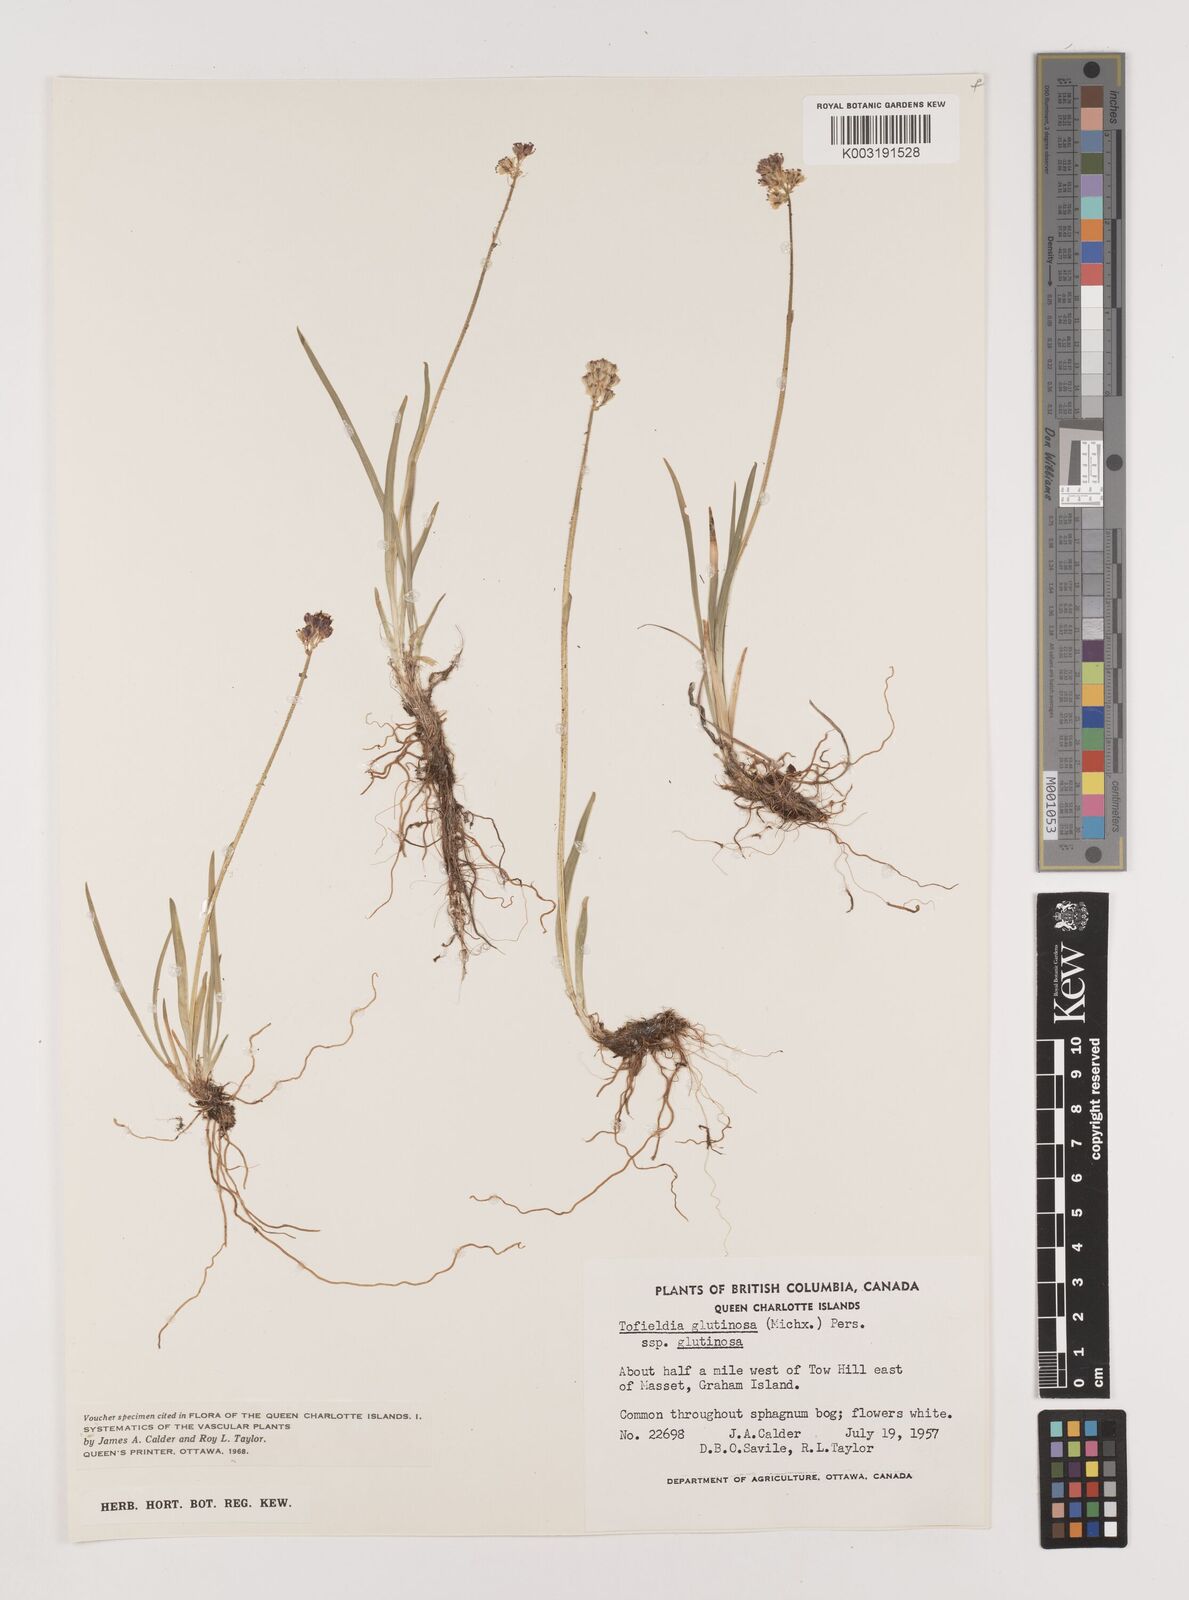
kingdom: Plantae
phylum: Tracheophyta
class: Liliopsida
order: Alismatales
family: Tofieldiaceae
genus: Triantha
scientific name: Triantha glutinosa
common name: Glutinous tofieldia
